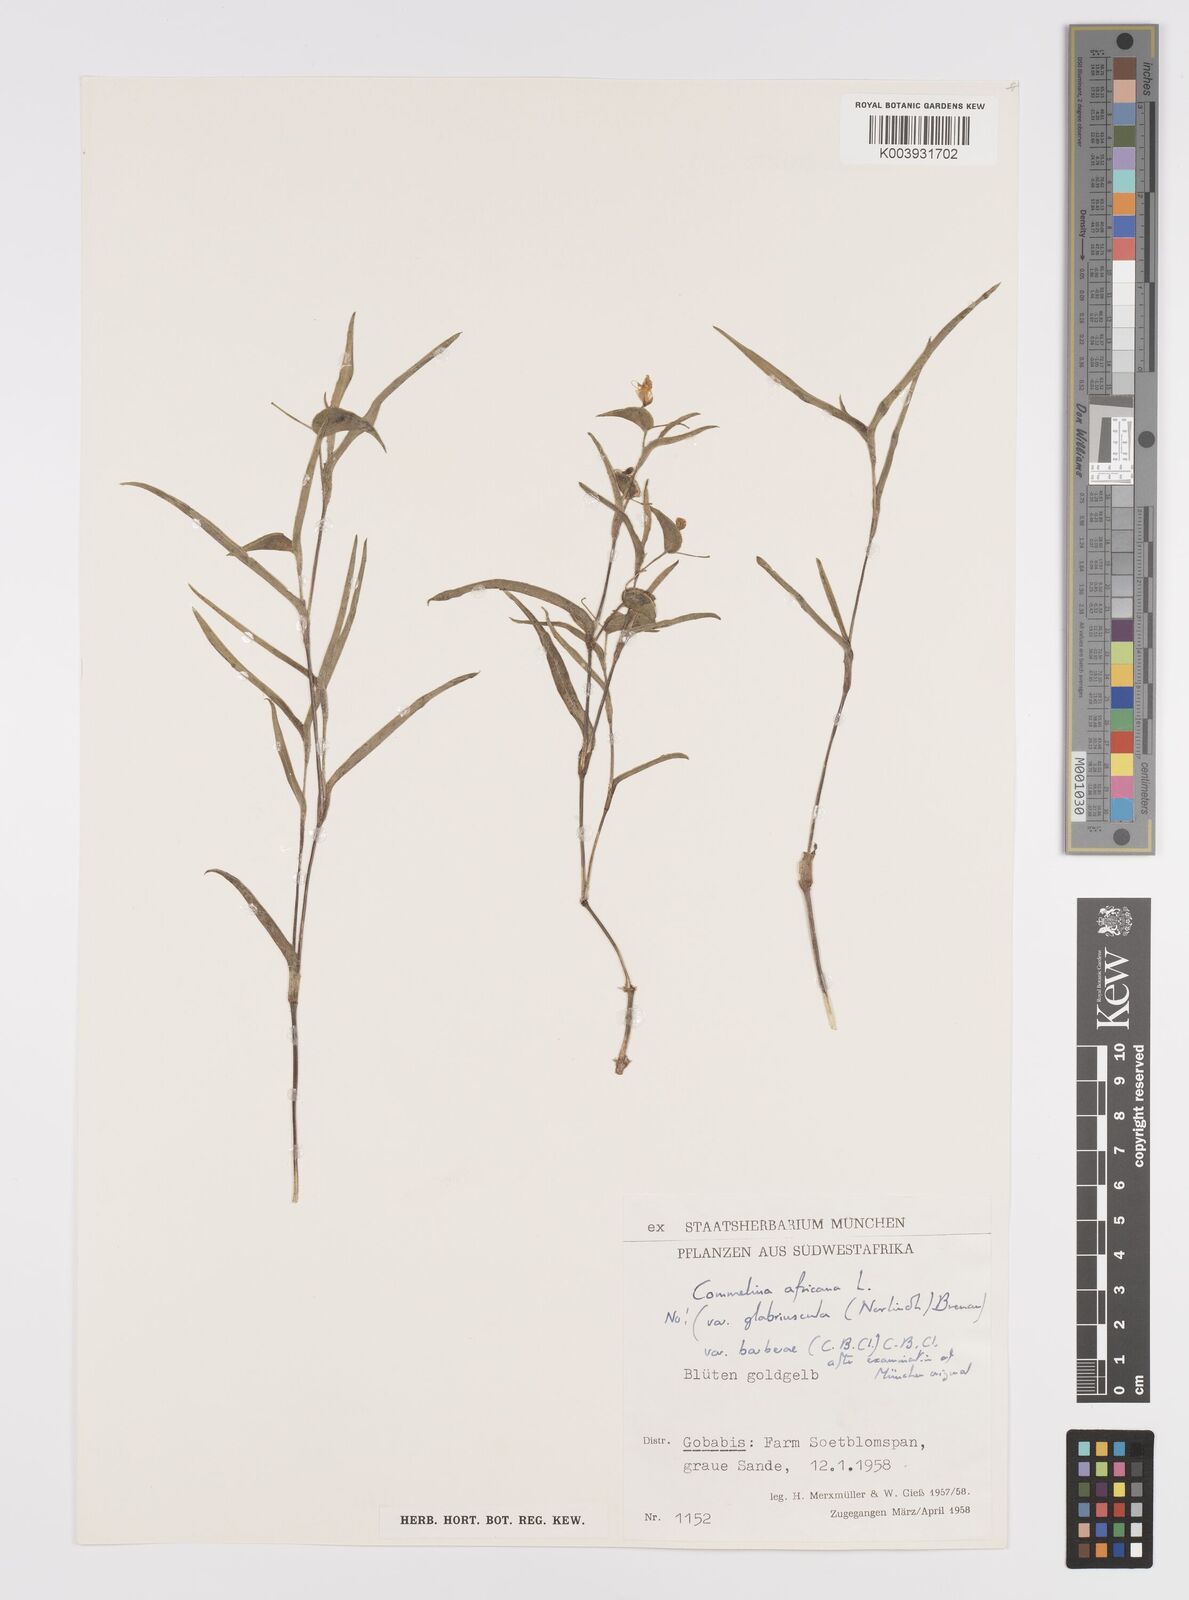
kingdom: Plantae
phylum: Tracheophyta
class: Liliopsida
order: Commelinales
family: Commelinaceae
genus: Commelina
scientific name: Commelina africana
